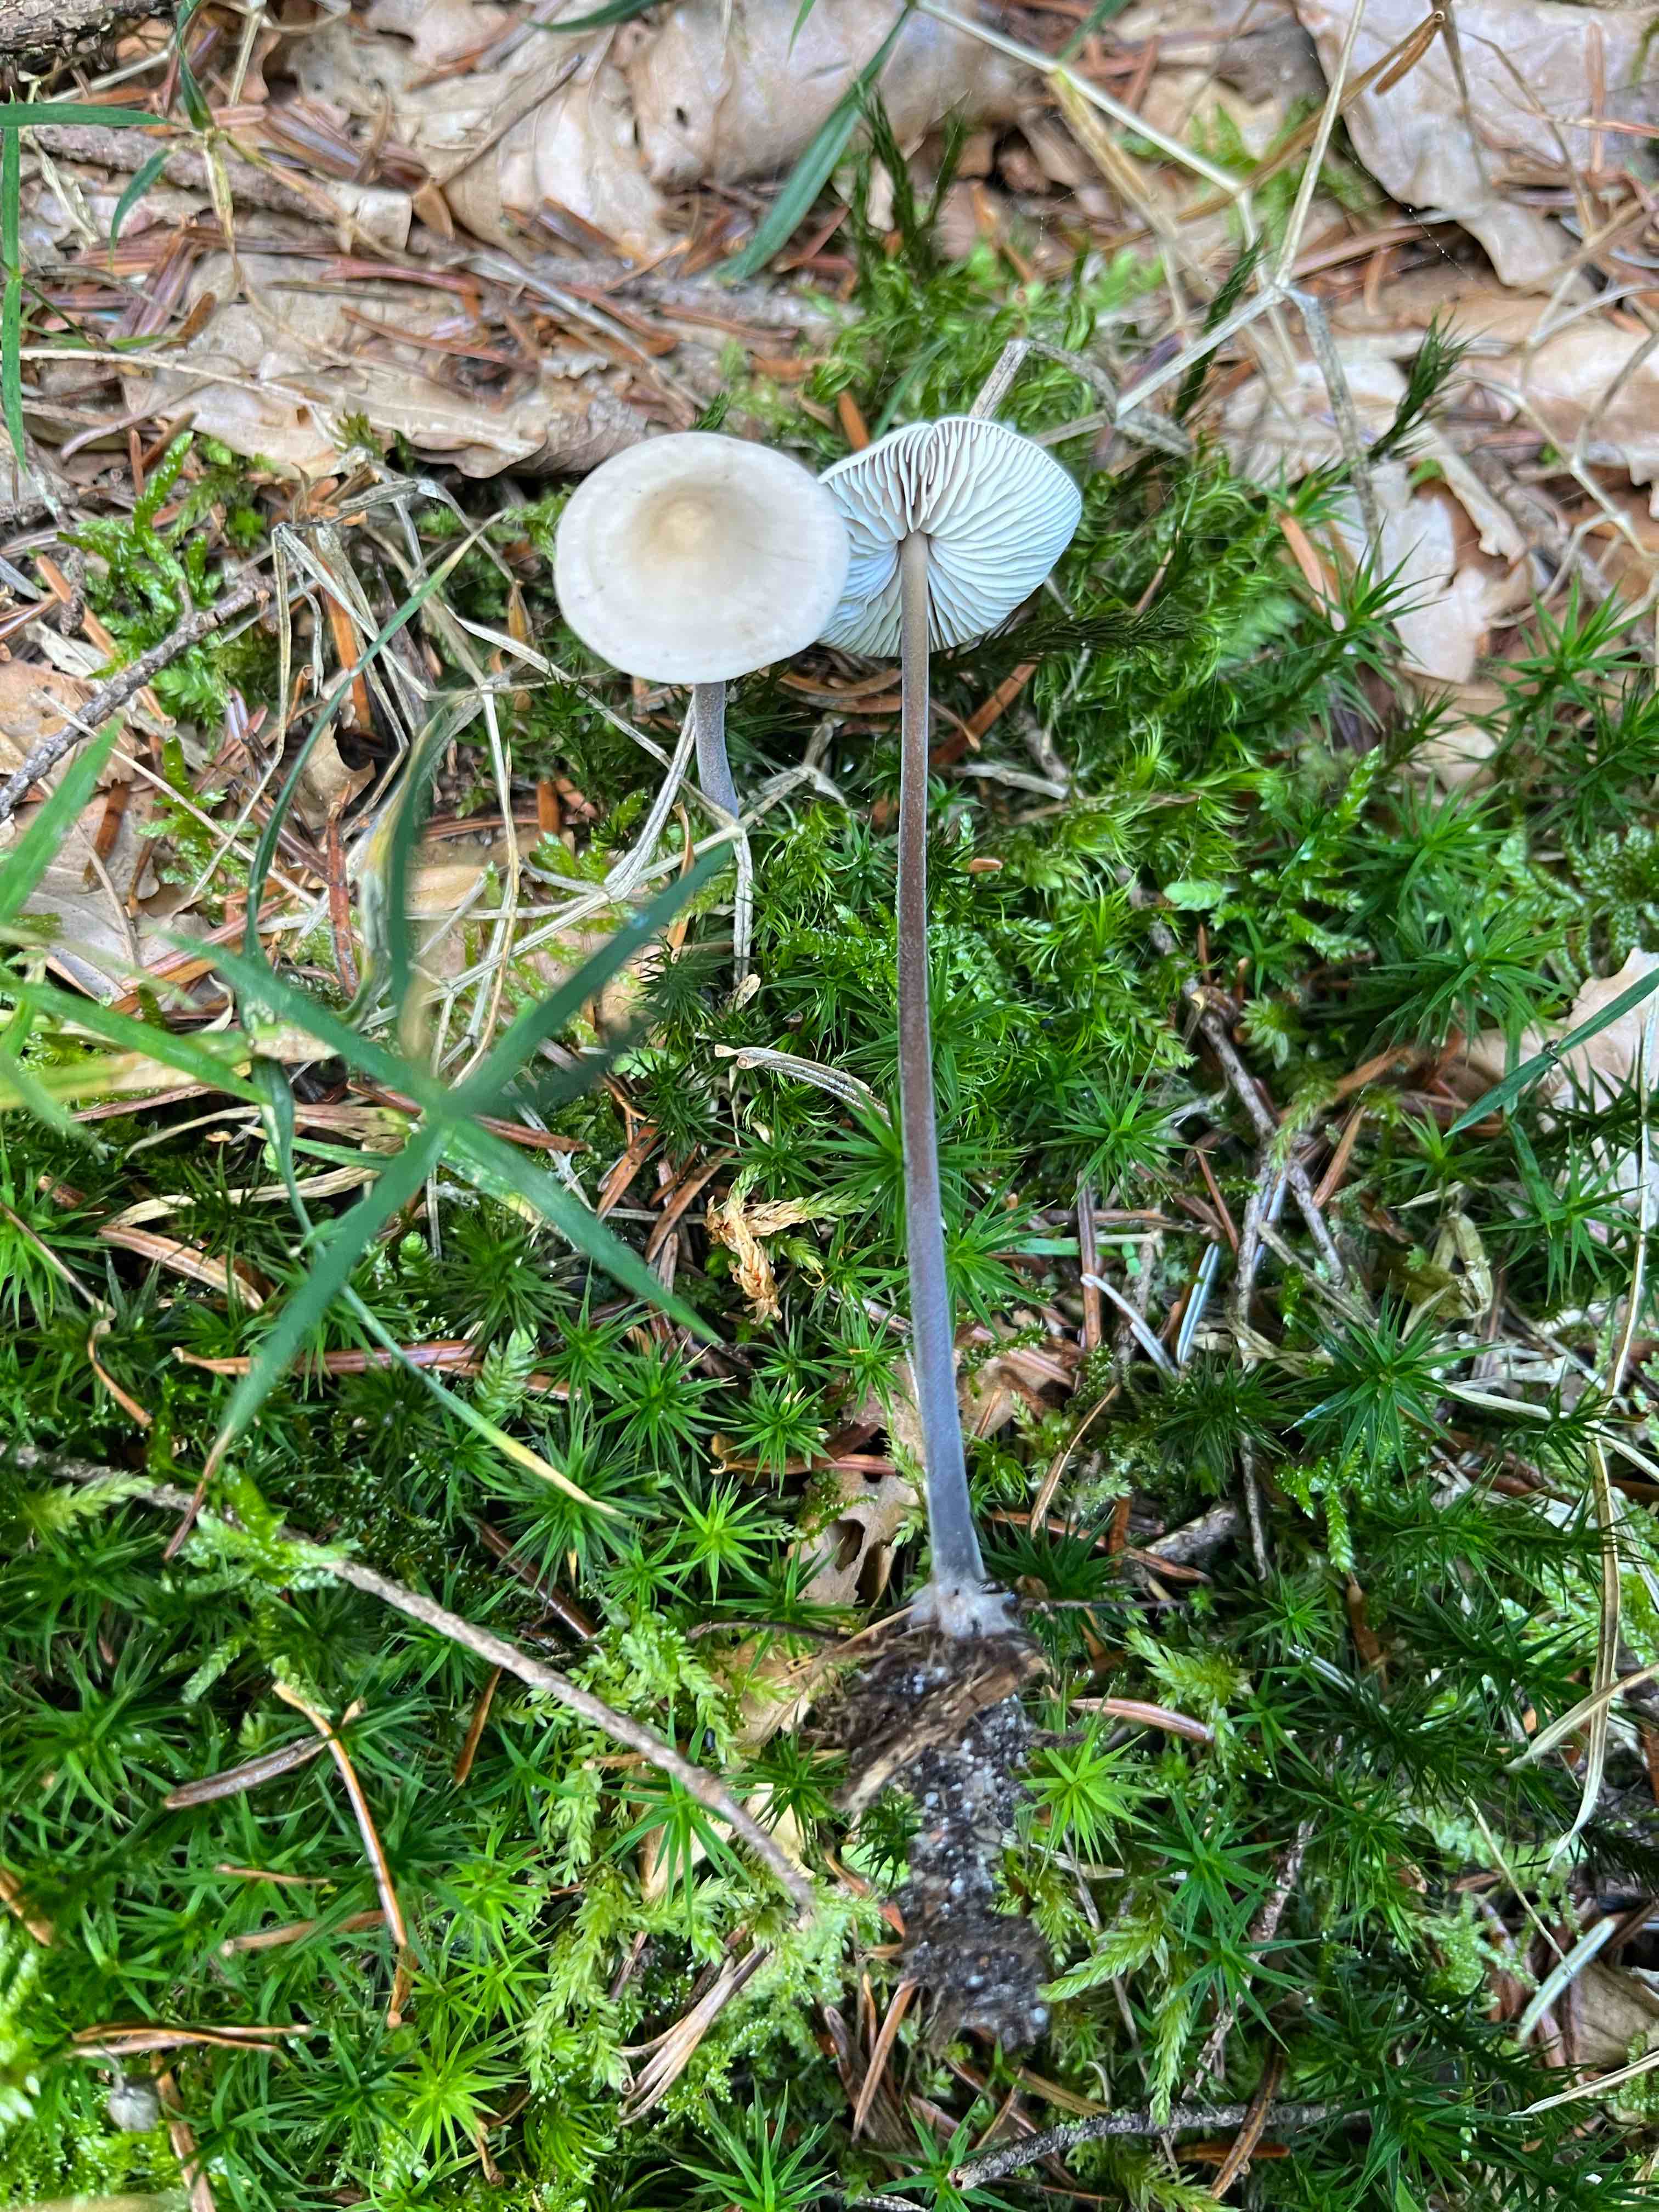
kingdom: Fungi
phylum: Basidiomycota
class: Agaricomycetes
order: Agaricales
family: Omphalotaceae
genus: Mycetinis
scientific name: Mycetinis alliaceus
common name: stor løghat
